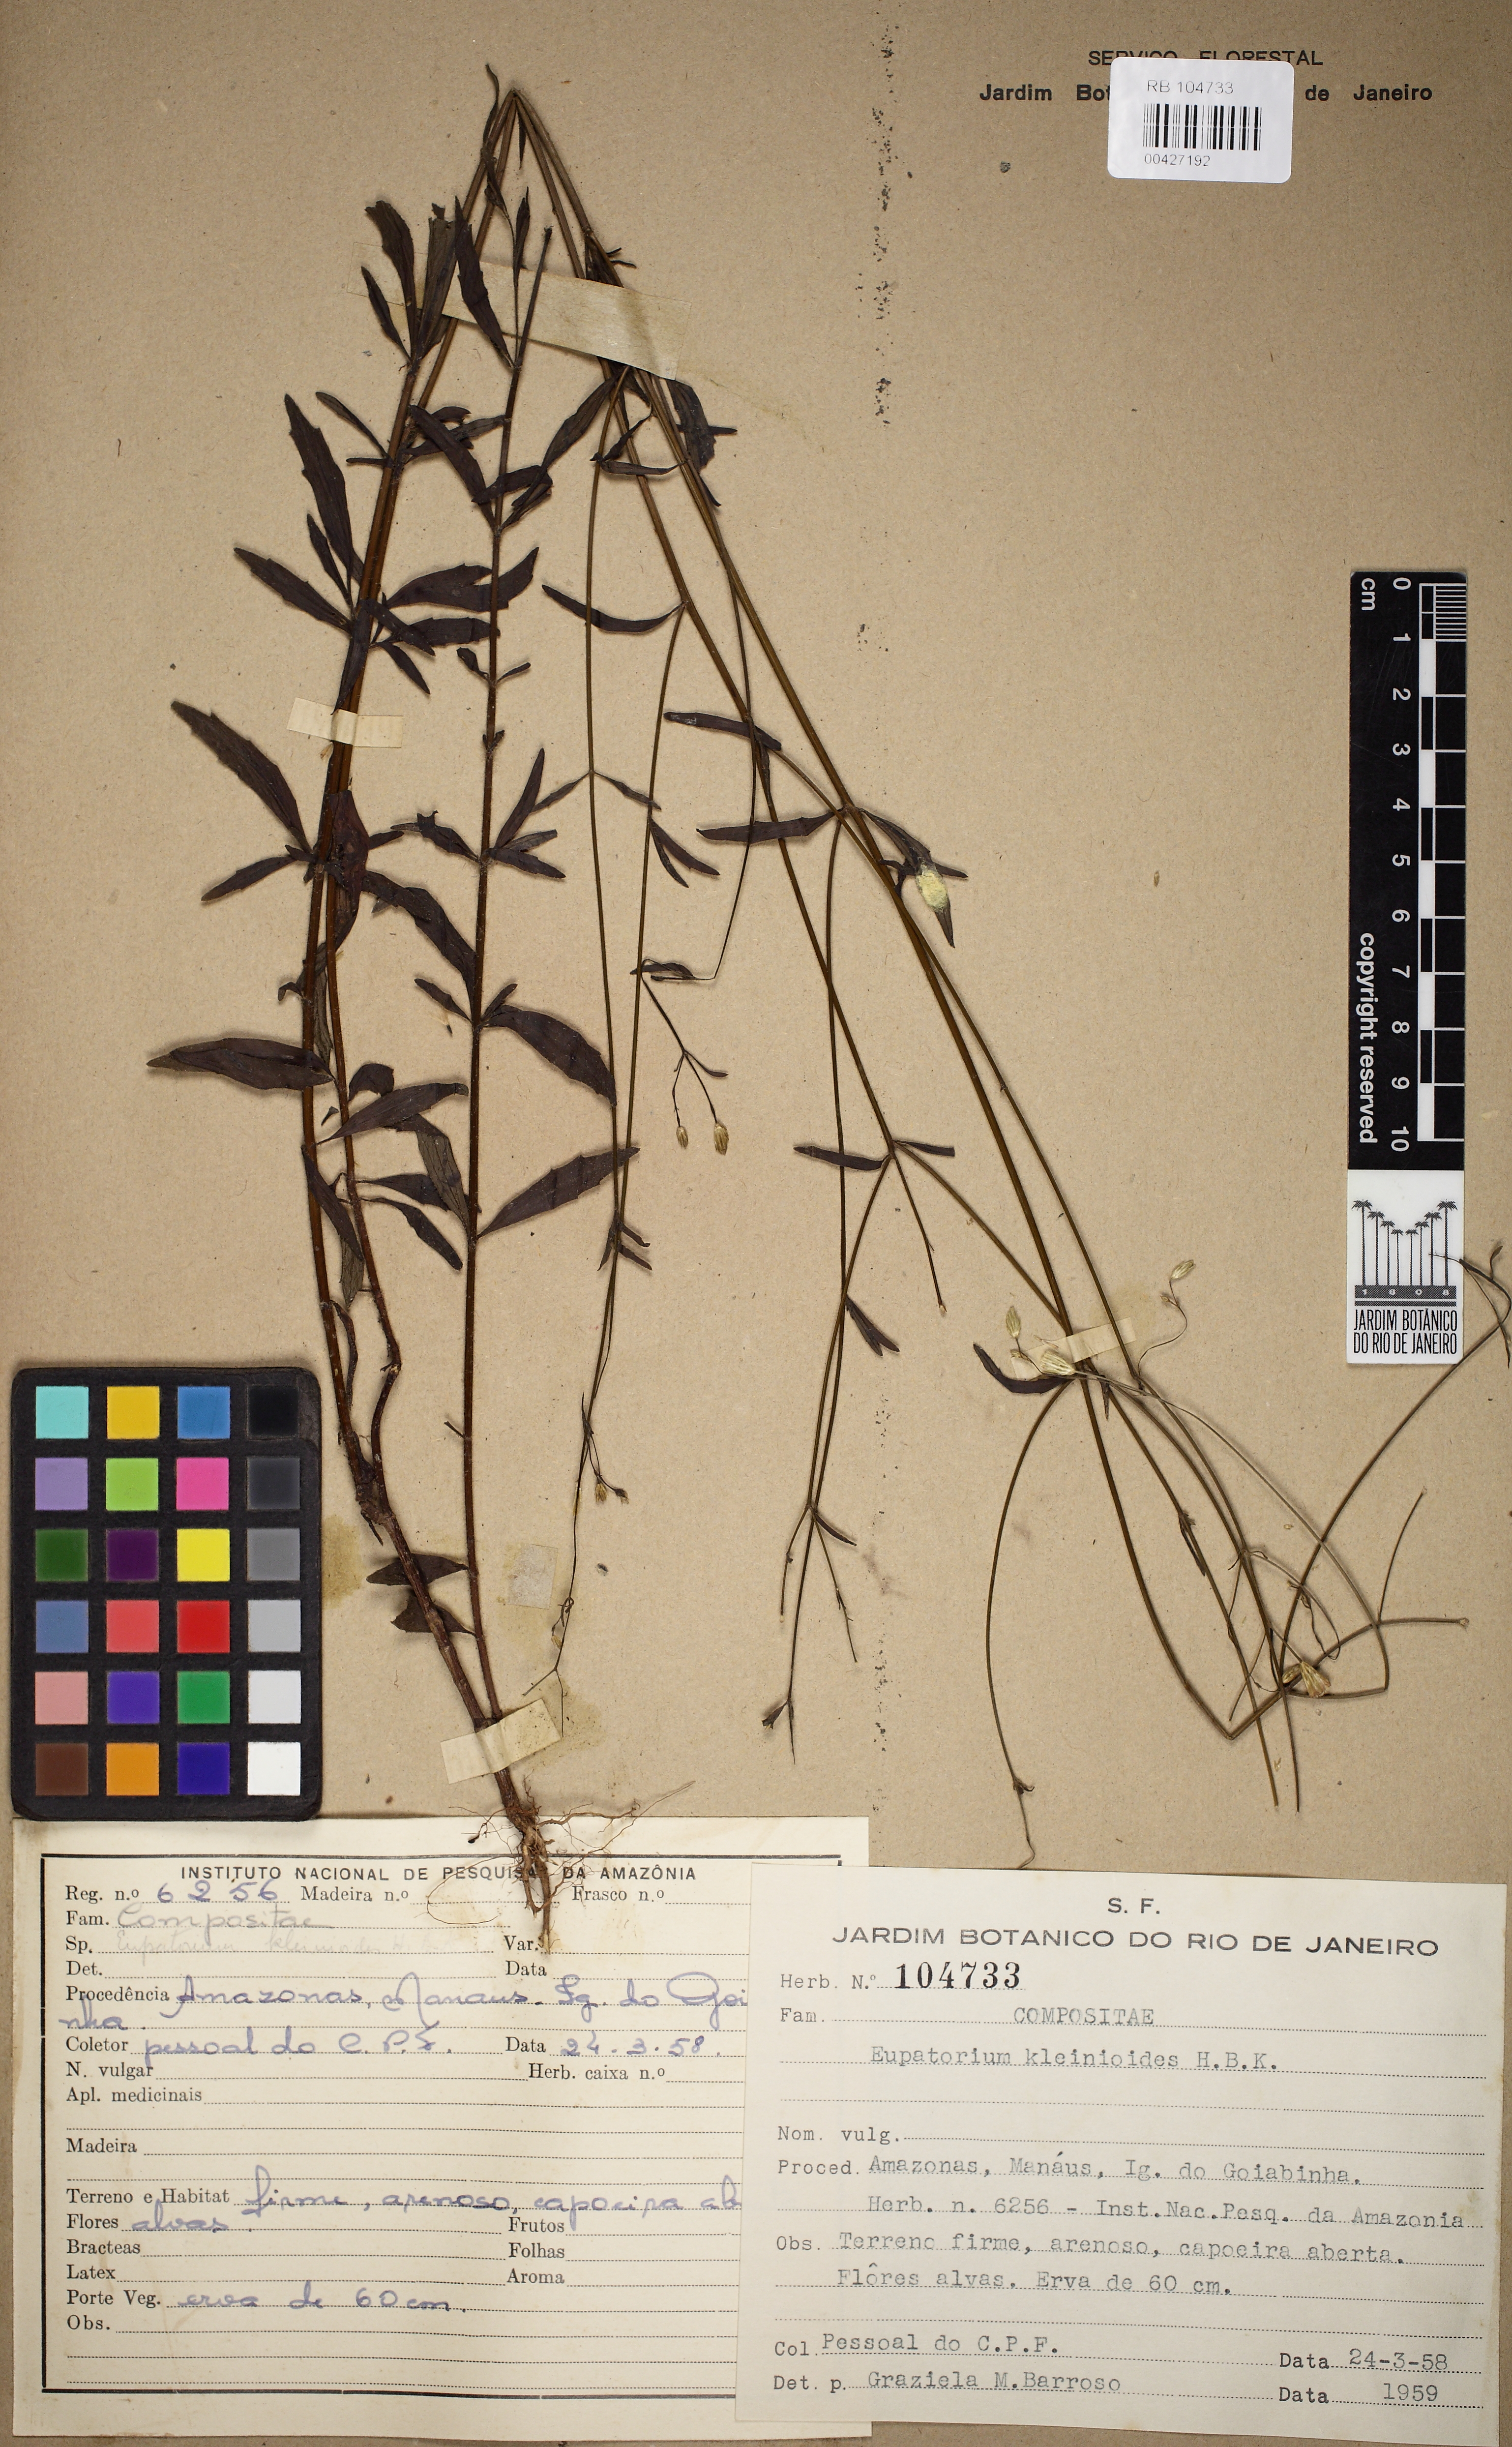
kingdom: Plantae
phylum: Tracheophyta
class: Magnoliopsida
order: Asterales
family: Asteraceae
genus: Praxelis
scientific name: Praxelis asperulacea
